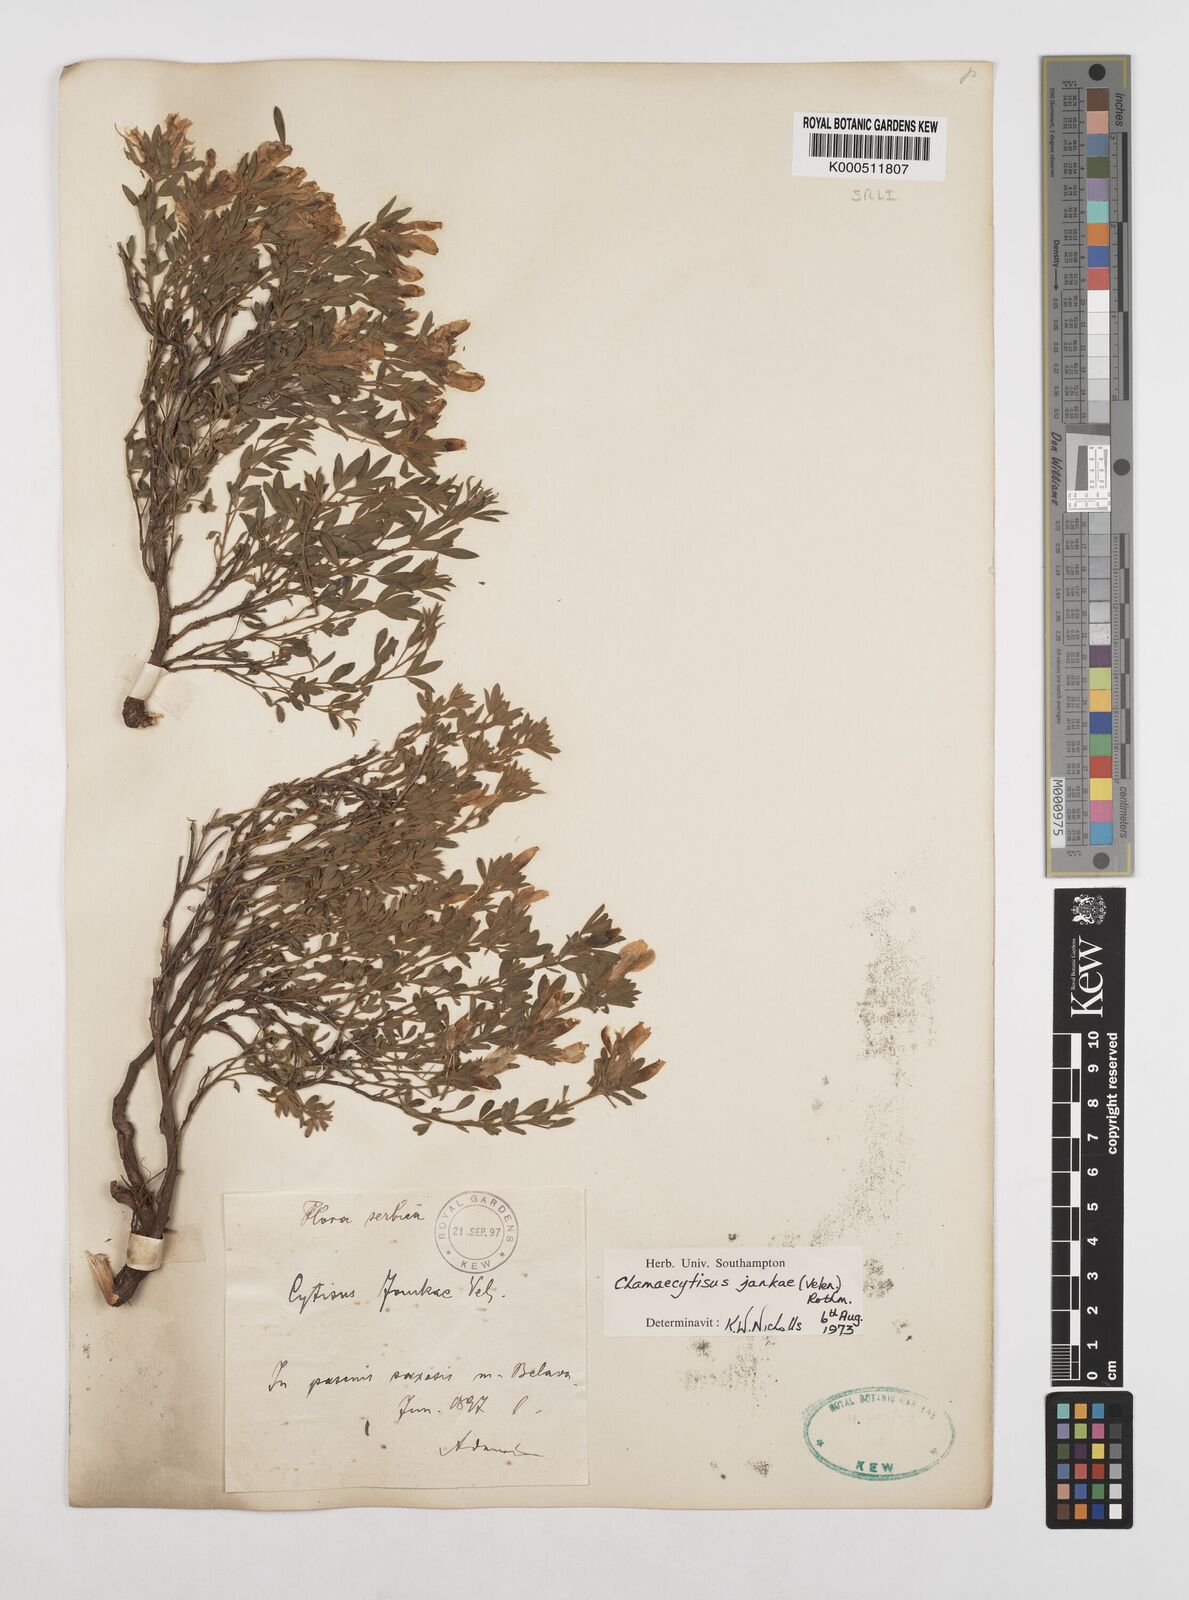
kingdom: Plantae
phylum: Tracheophyta
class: Magnoliopsida
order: Fabales
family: Fabaceae
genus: Chamaecytisus
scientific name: Chamaecytisus jankae
